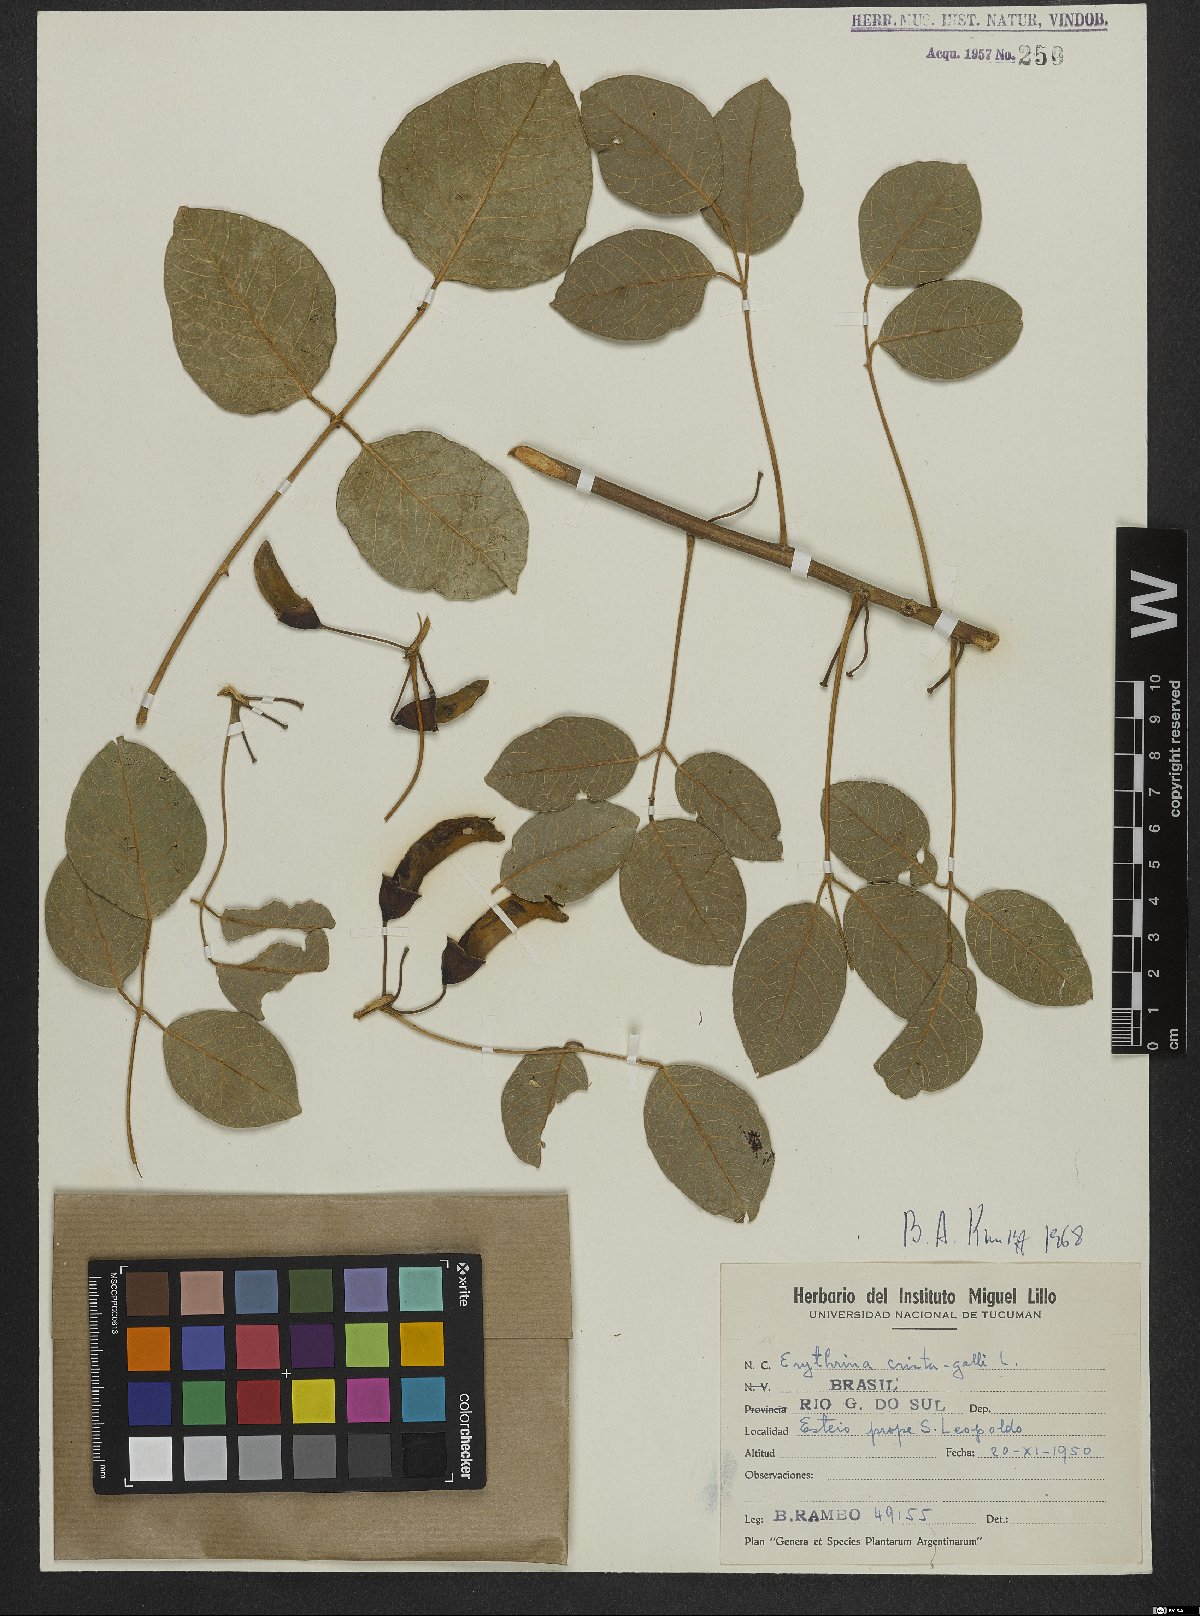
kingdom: Plantae
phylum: Tracheophyta
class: Magnoliopsida
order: Fabales
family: Fabaceae
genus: Erythrina
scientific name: Erythrina crista-galli
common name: Cockspur coral tree
